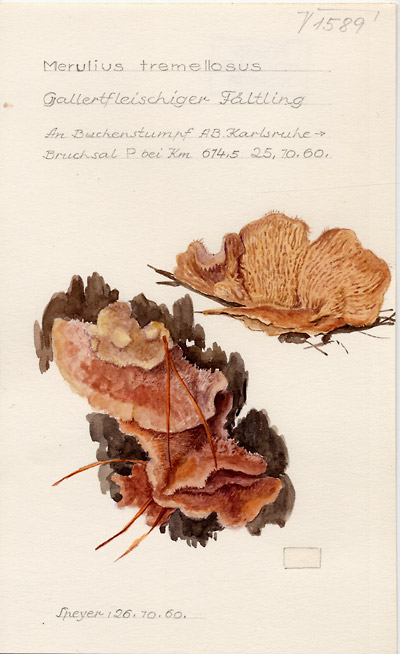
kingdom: Fungi
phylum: Basidiomycota
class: Agaricomycetes
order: Polyporales
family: Meruliaceae
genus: Phlebia
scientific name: Phlebia tremellosa
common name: Jelly rot
